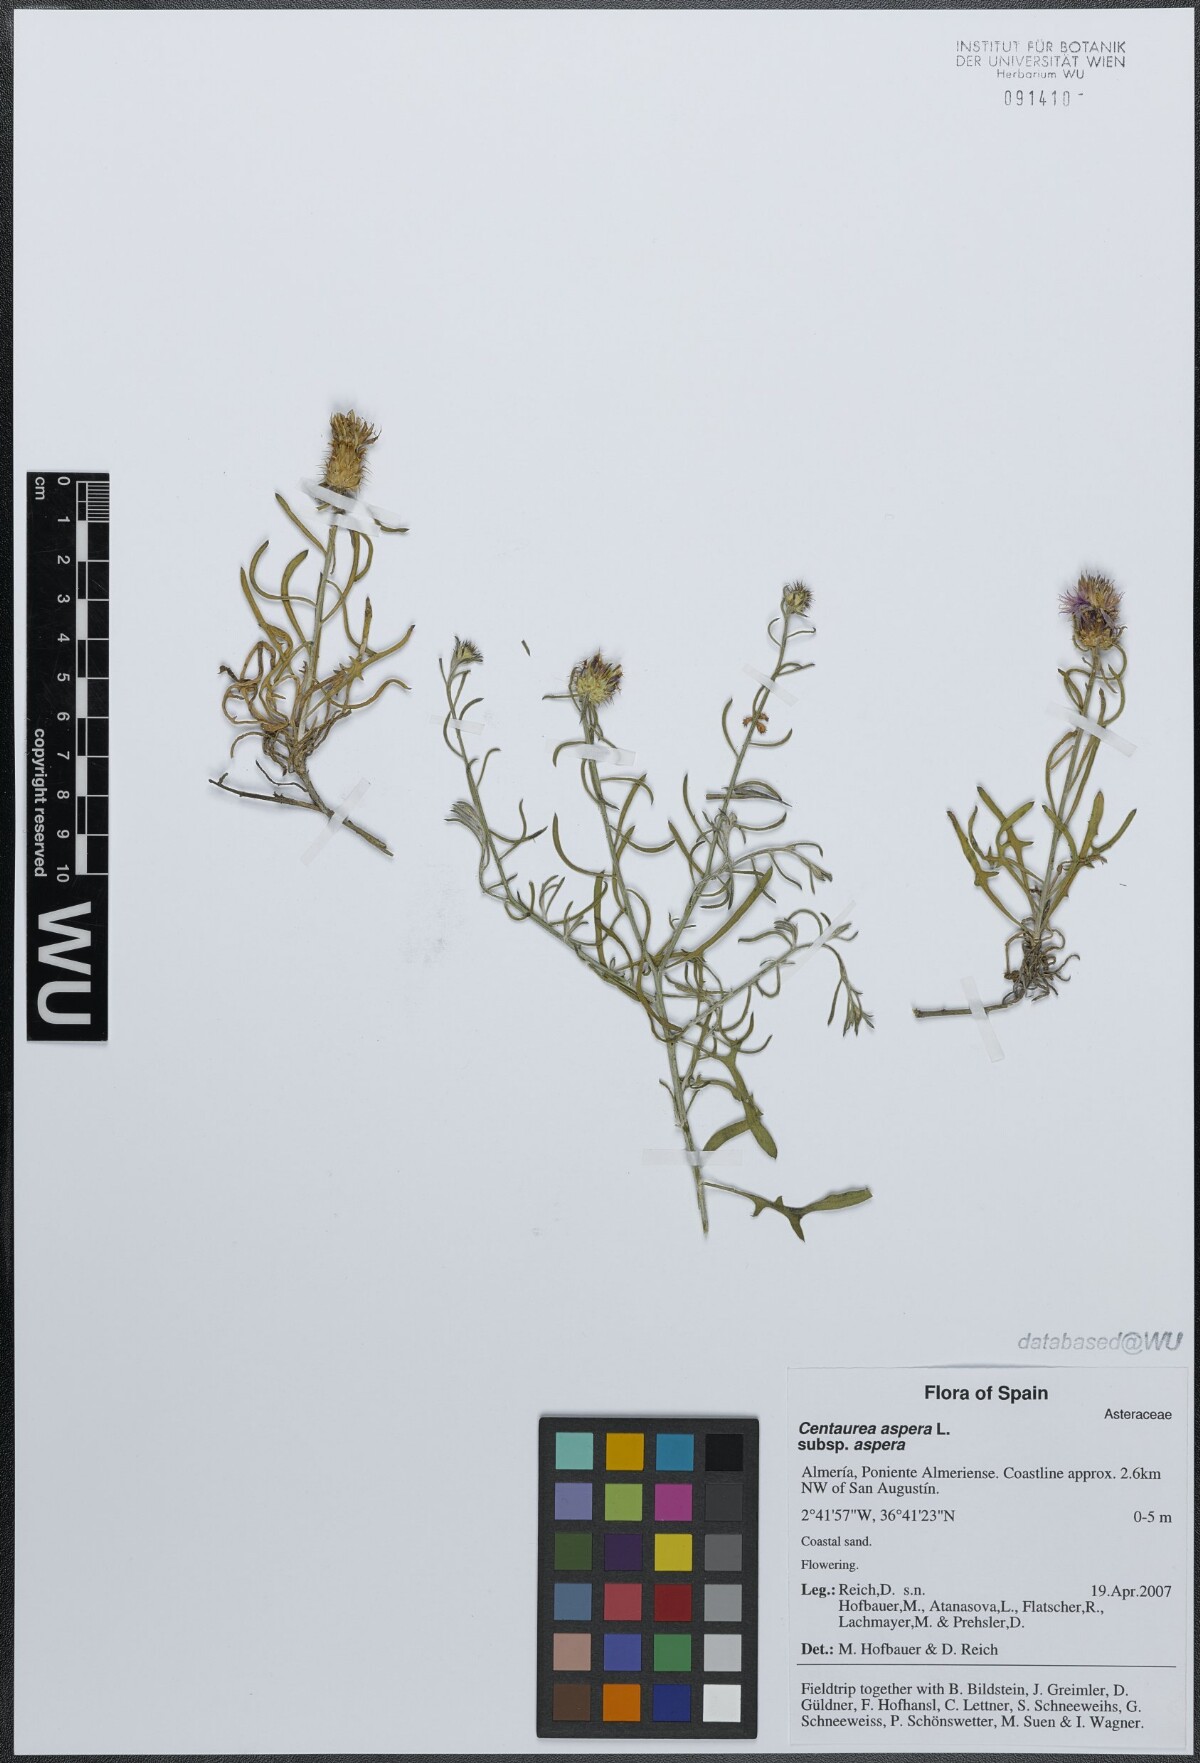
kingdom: Plantae
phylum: Tracheophyta
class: Magnoliopsida
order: Asterales
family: Asteraceae
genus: Centaurea
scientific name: Centaurea aspera
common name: Rough star-thistle
